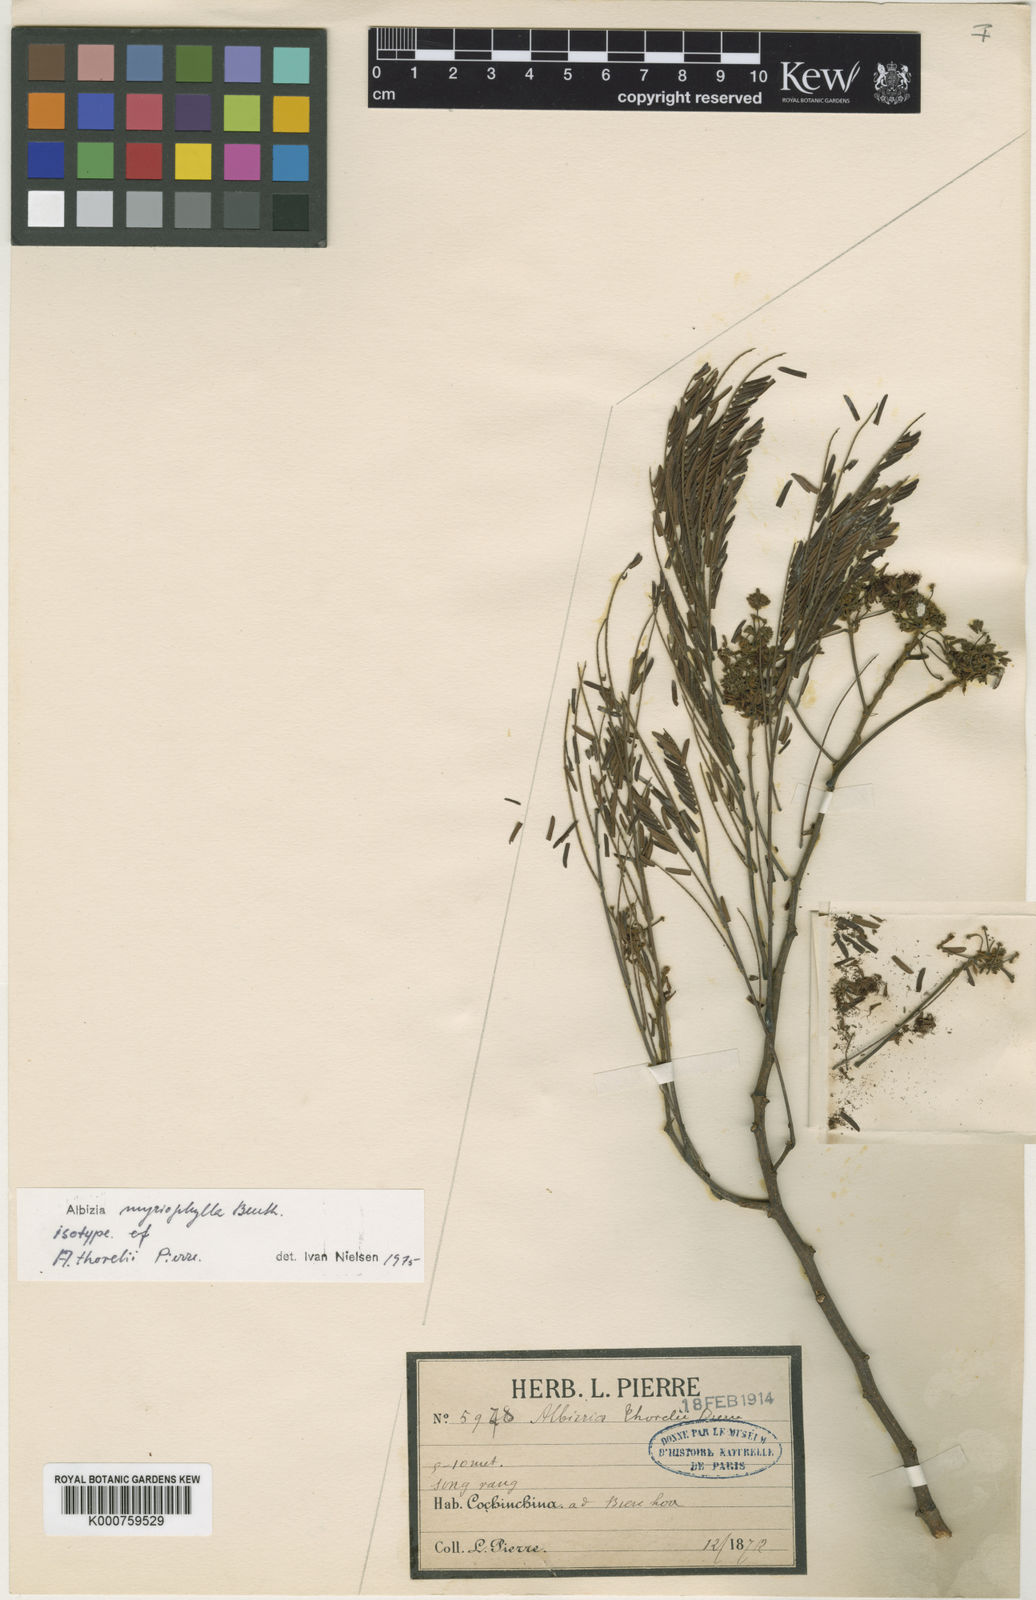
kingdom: Plantae
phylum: Tracheophyta
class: Magnoliopsida
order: Fabales
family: Fabaceae
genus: Albizia
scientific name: Albizia myriophylla
